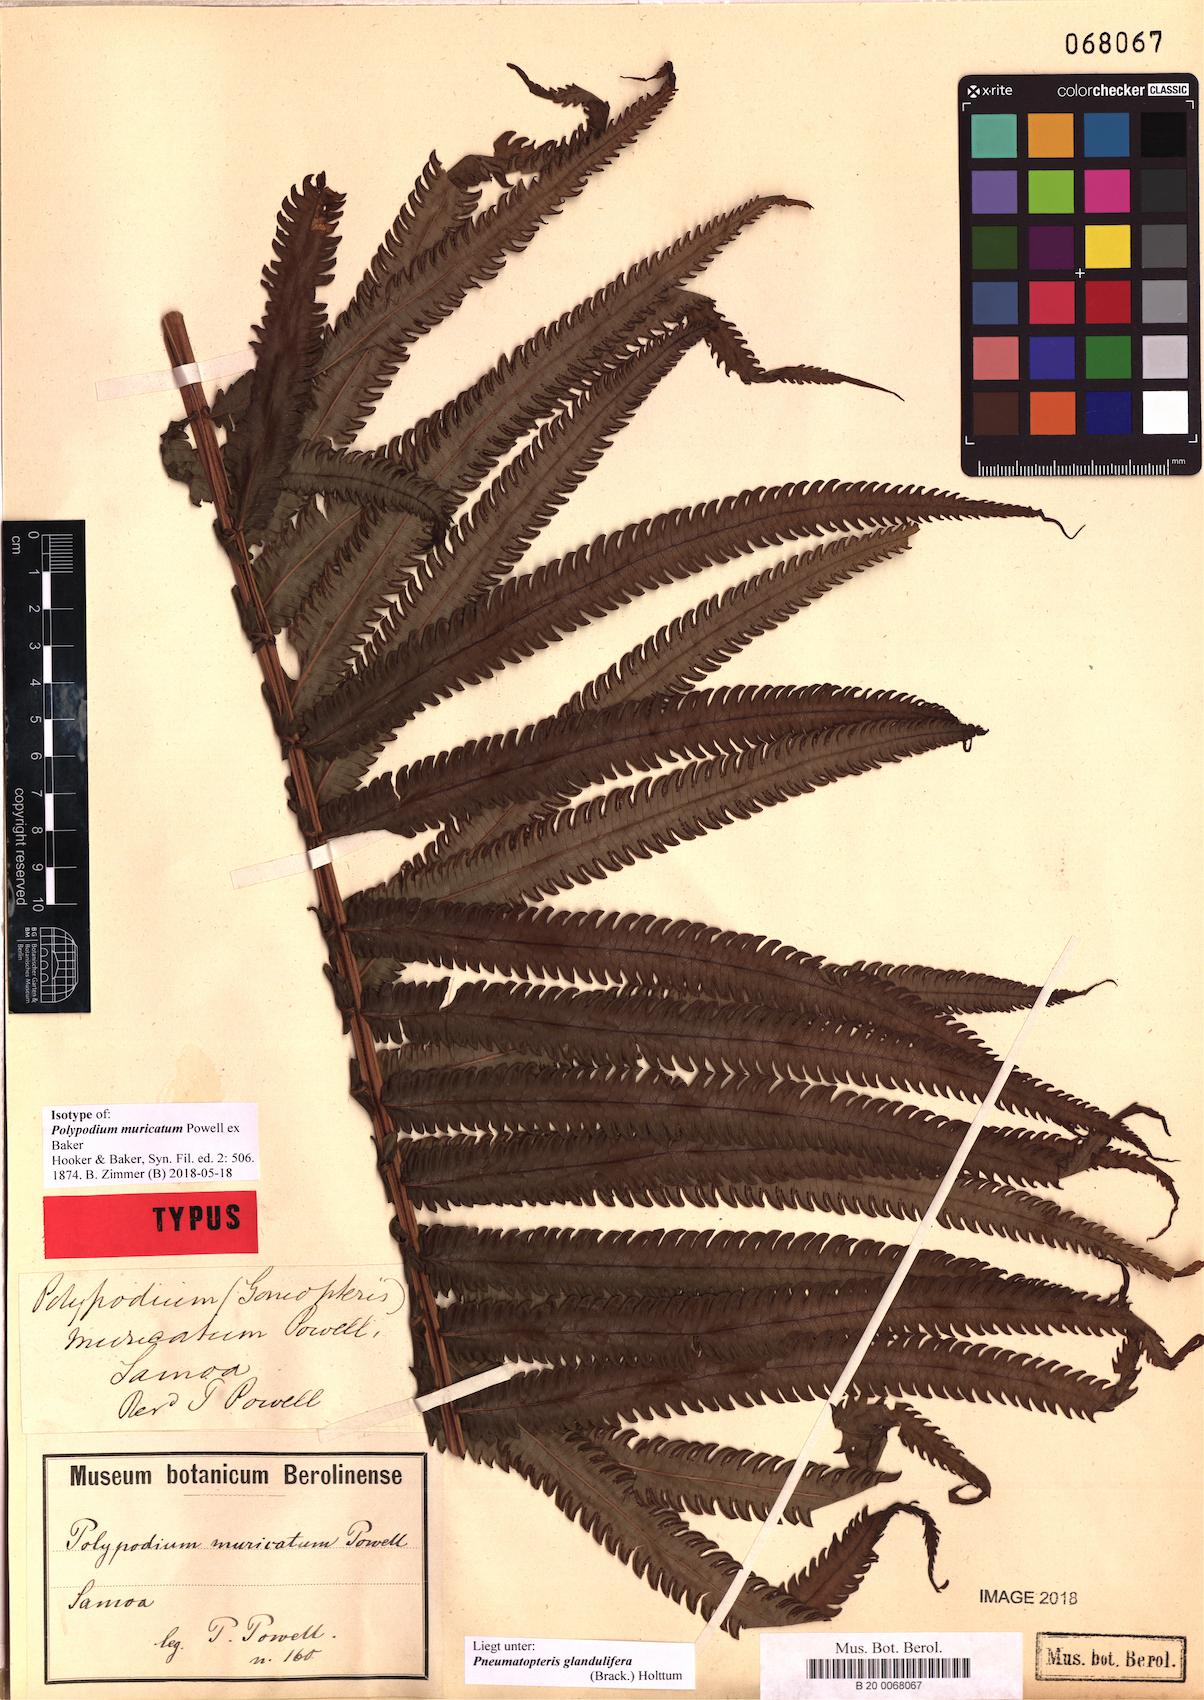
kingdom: Plantae
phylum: Tracheophyta
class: Polypodiopsida
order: Polypodiales
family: Thelypteridaceae
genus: Pneumatopteris
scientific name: Pneumatopteris glandulifera
